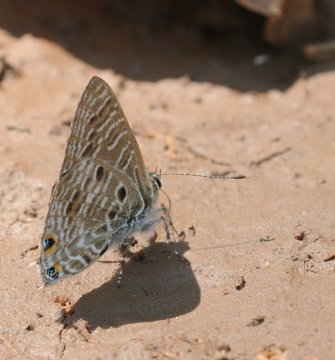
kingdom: Animalia
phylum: Arthropoda
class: Insecta
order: Lepidoptera
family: Lycaenidae
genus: Anthene
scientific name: Anthene
